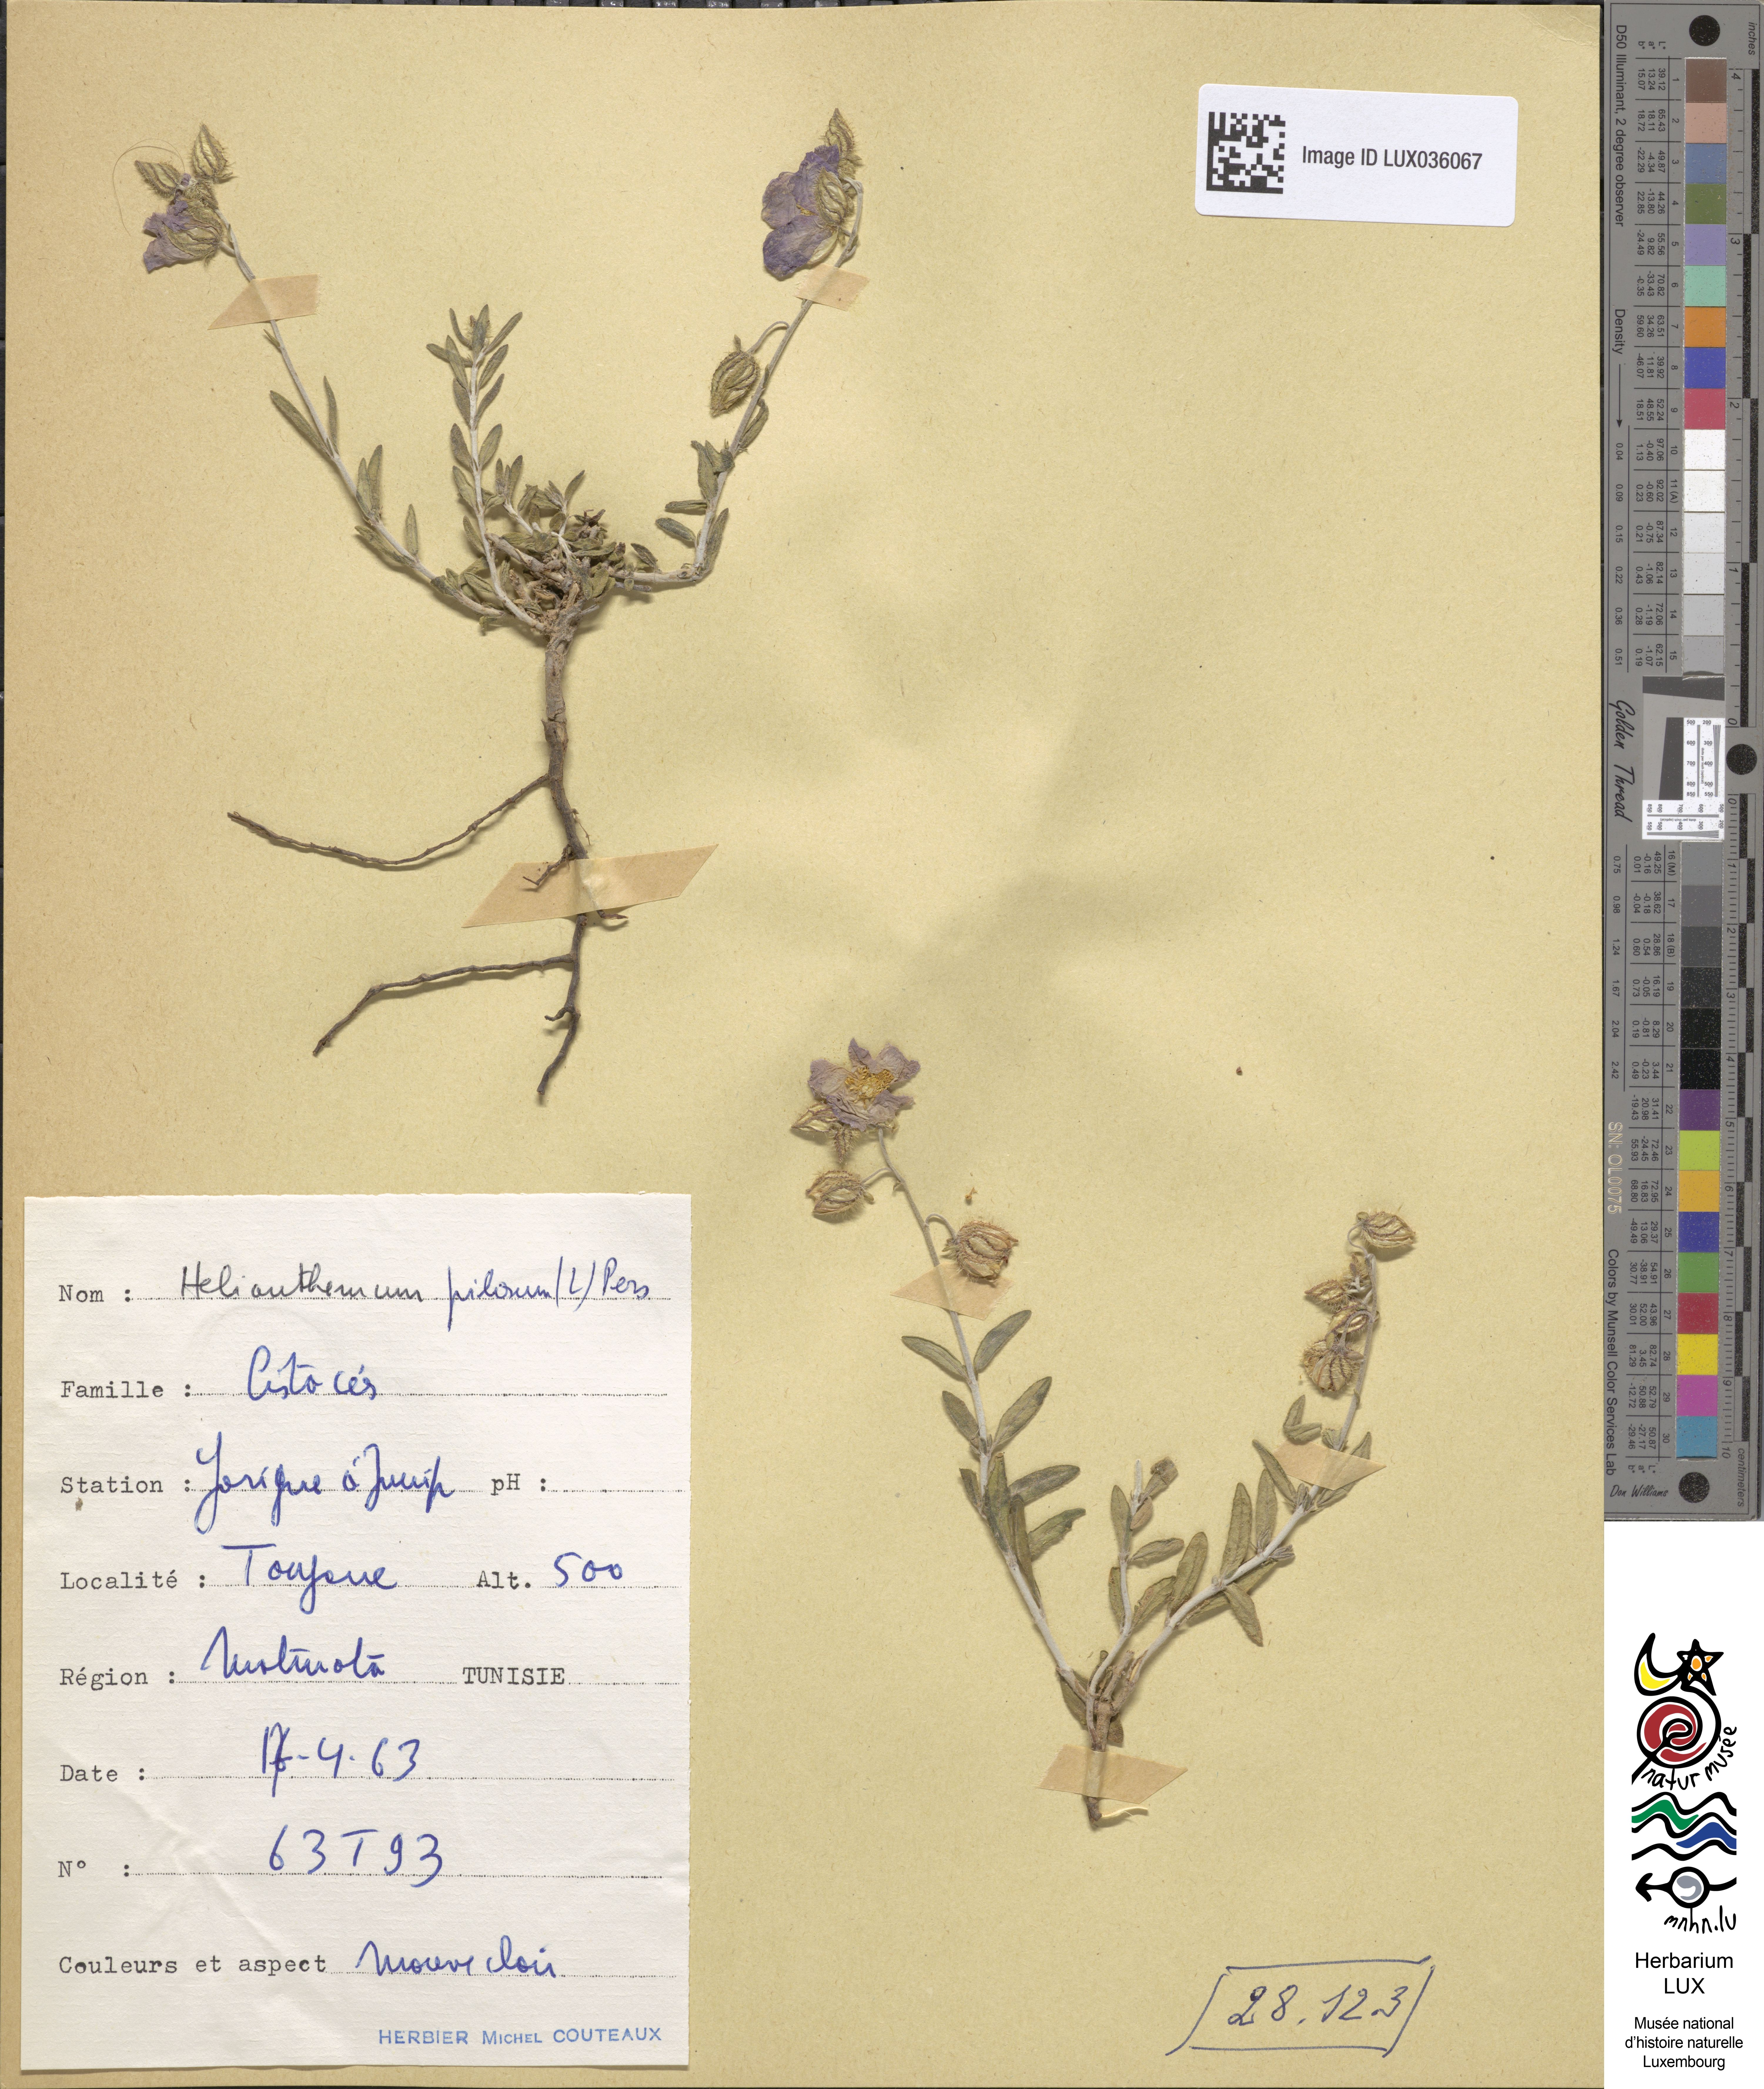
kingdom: Plantae
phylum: Tracheophyta
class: Magnoliopsida
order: Malvales
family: Cistaceae
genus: Fumana
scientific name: Fumana laevis
